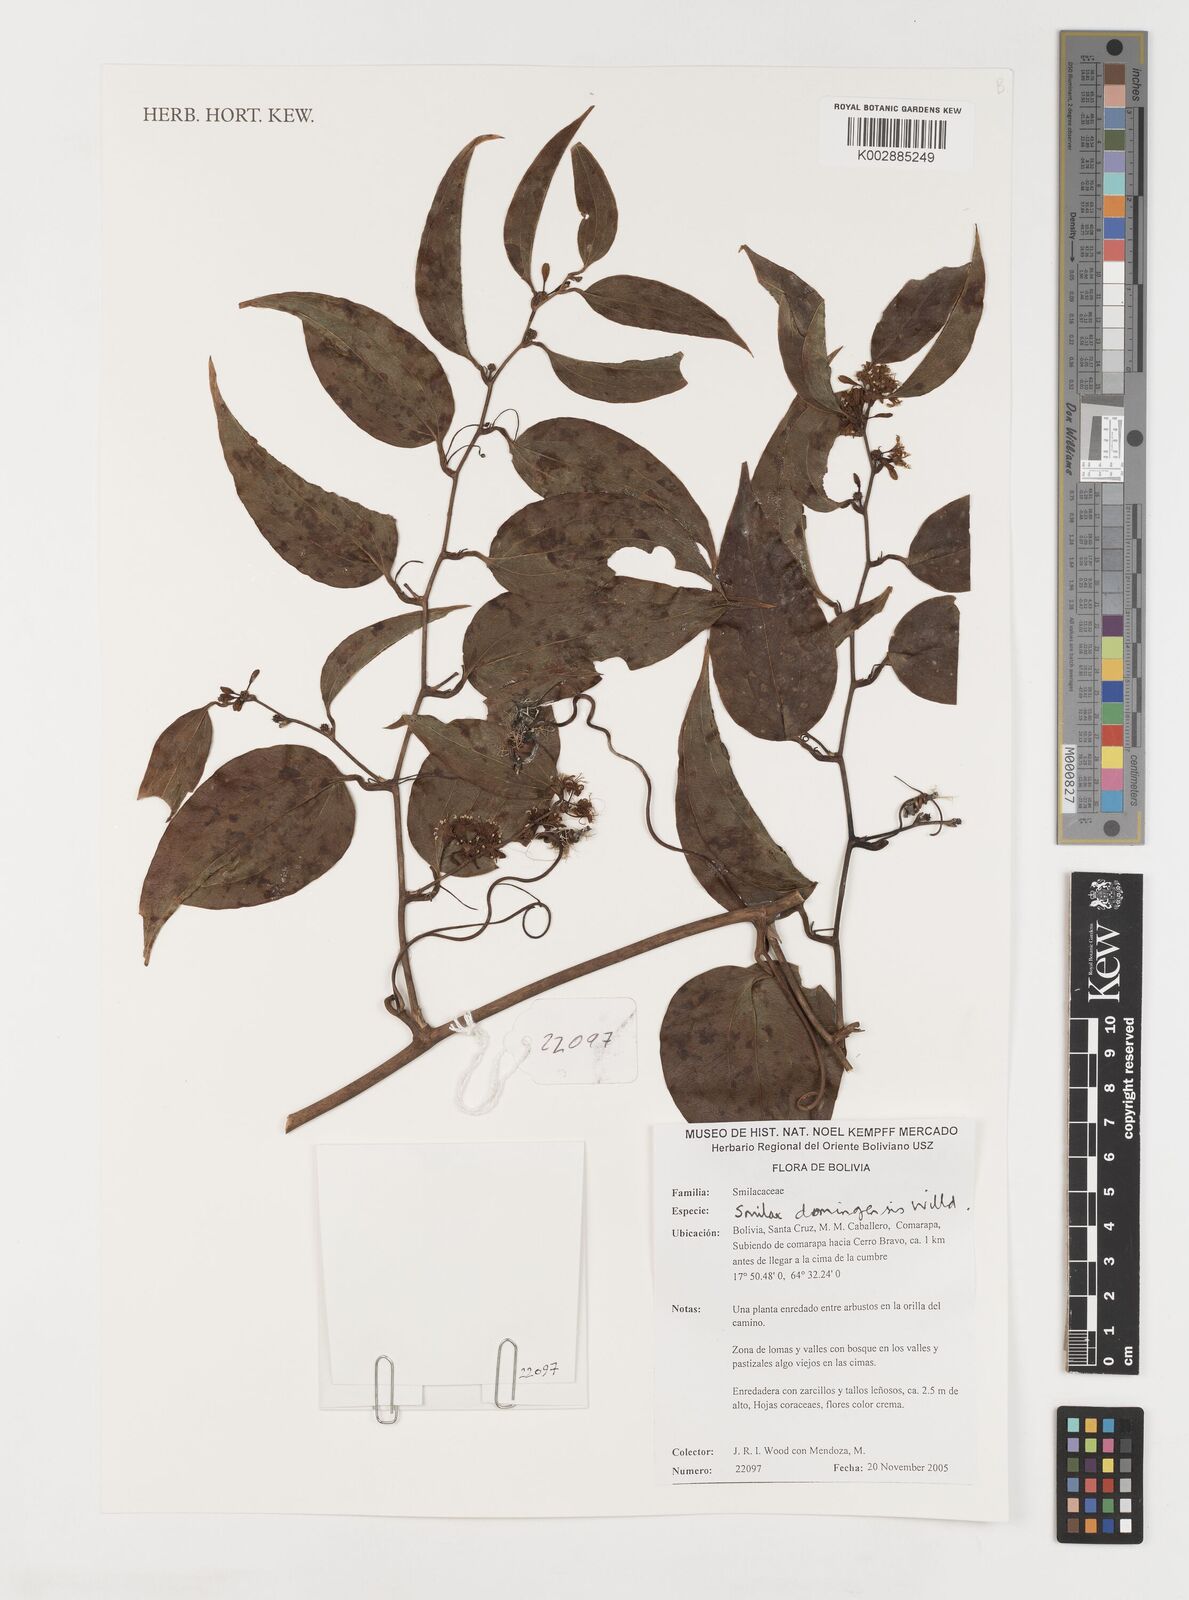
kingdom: Plantae
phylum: Tracheophyta
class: Liliopsida
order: Liliales
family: Smilacaceae
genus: Smilax
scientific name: Smilax domingensis
